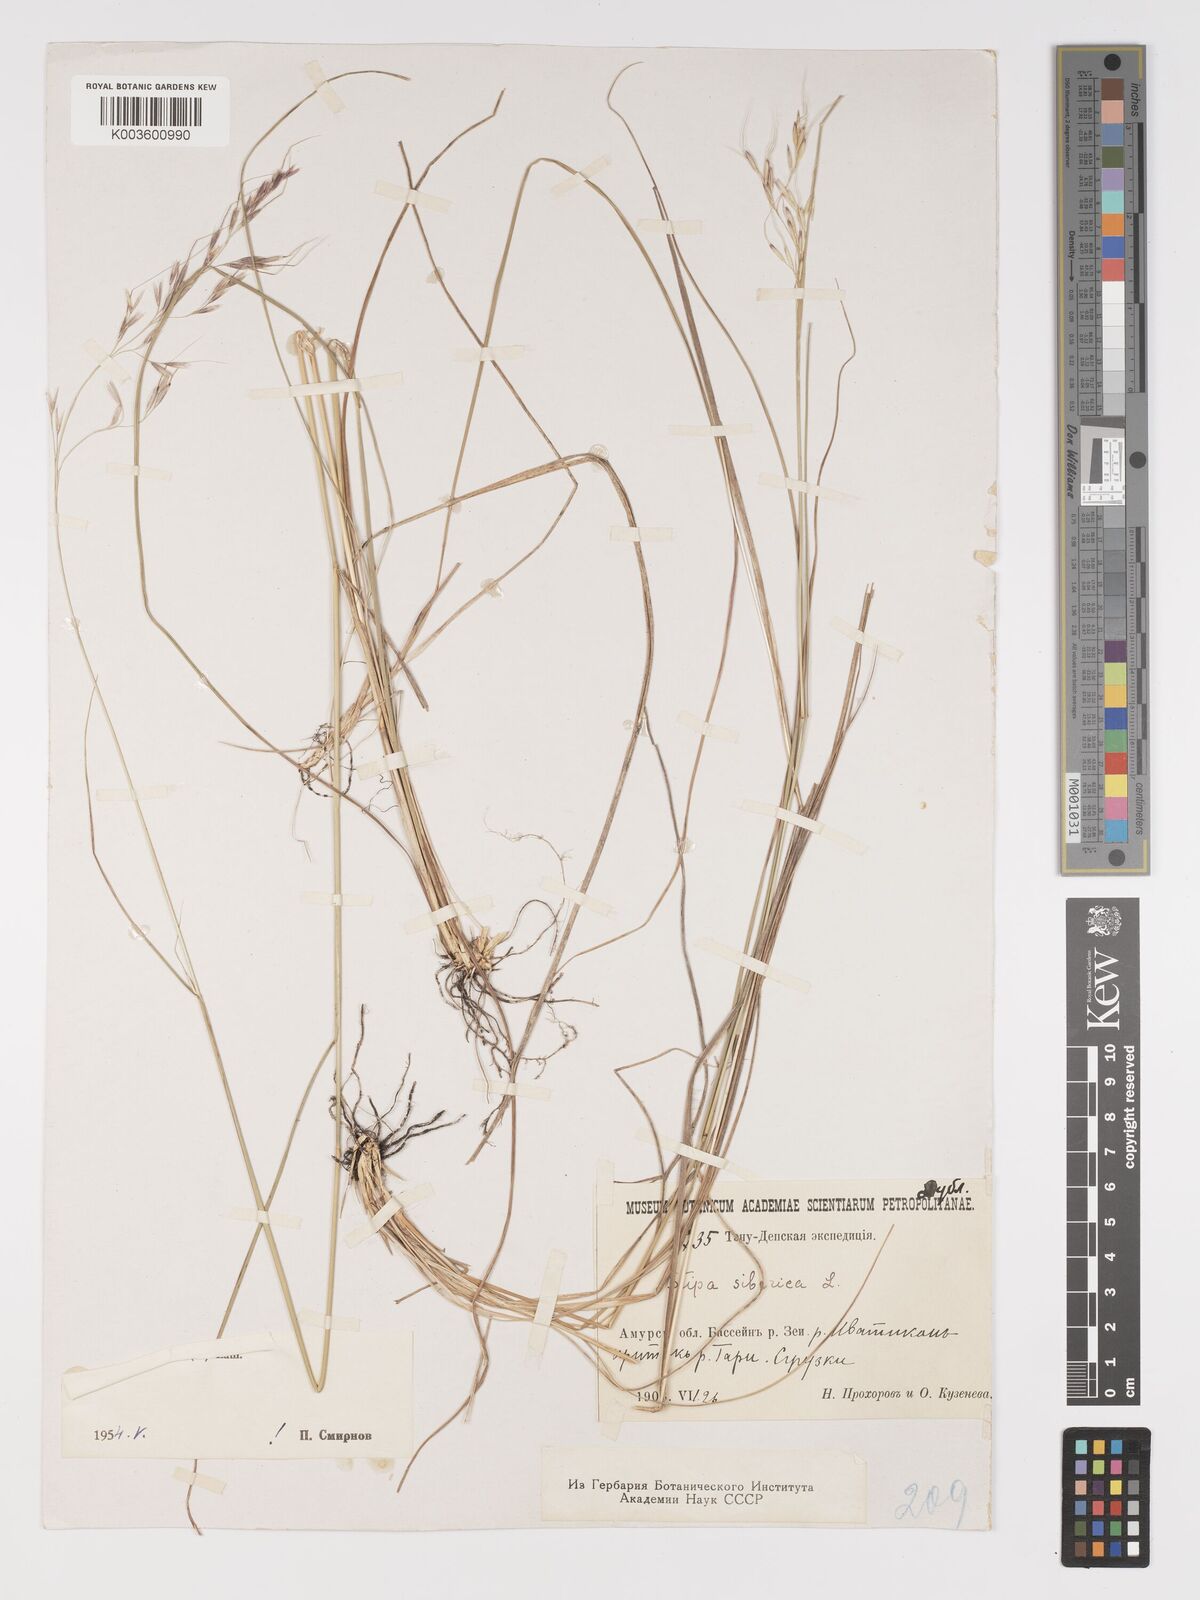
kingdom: Plantae
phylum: Tracheophyta
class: Liliopsida
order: Poales
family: Poaceae
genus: Achnatherum
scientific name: Achnatherum sibiricum
